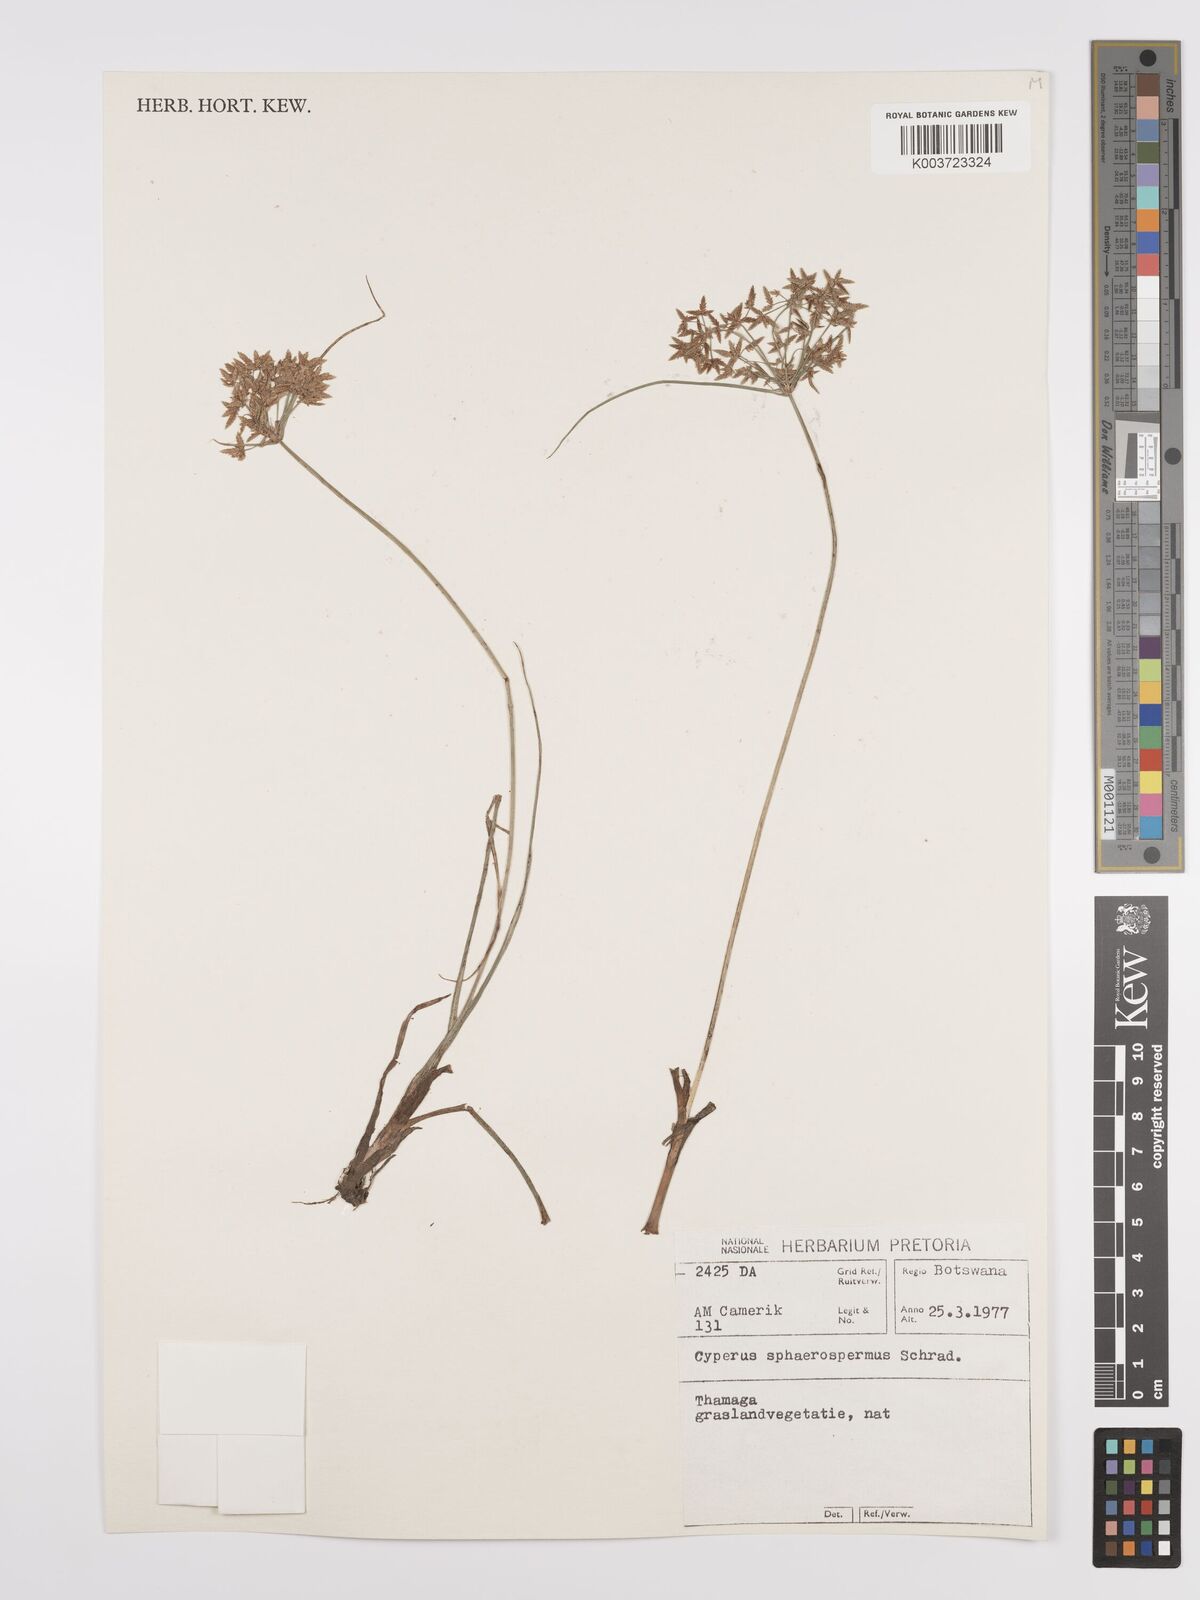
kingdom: Plantae
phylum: Tracheophyta
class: Liliopsida
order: Poales
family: Cyperaceae
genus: Cyperus
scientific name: Cyperus denudatus
